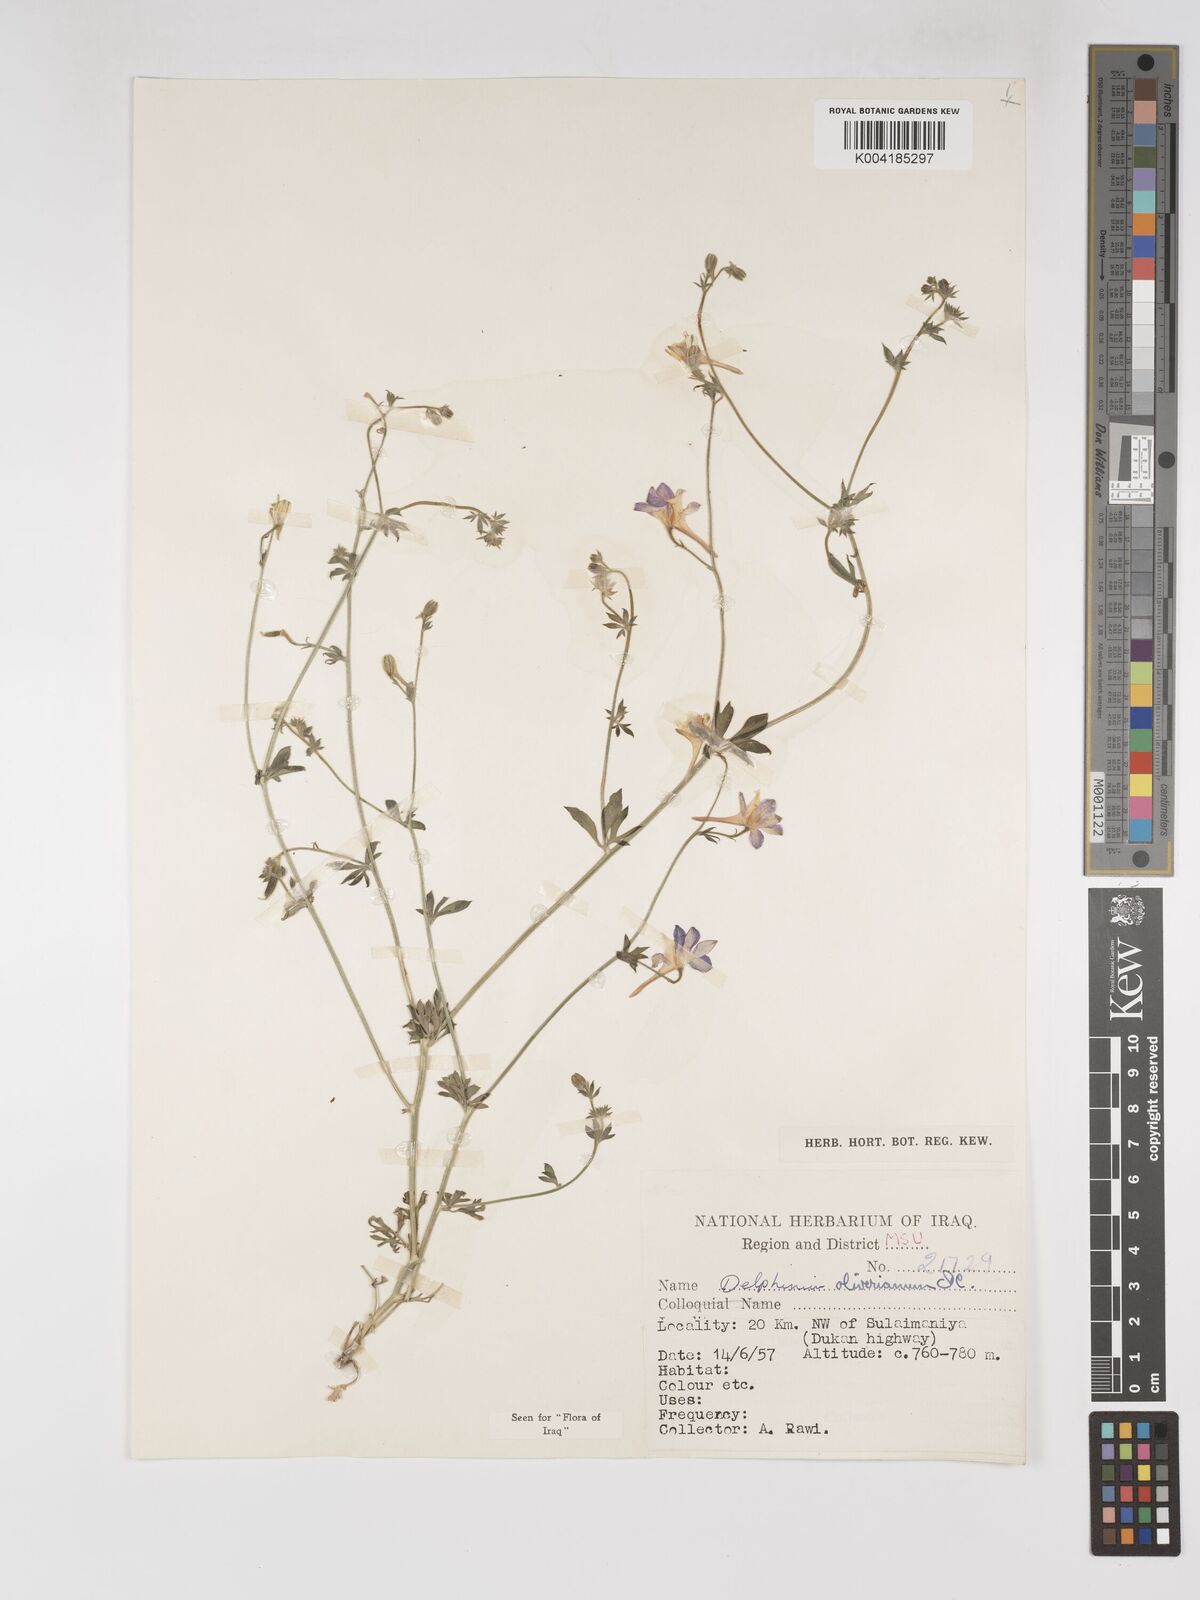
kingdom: Plantae
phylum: Tracheophyta
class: Magnoliopsida
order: Ranunculales
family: Ranunculaceae
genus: Delphinium
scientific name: Delphinium oliverianum
